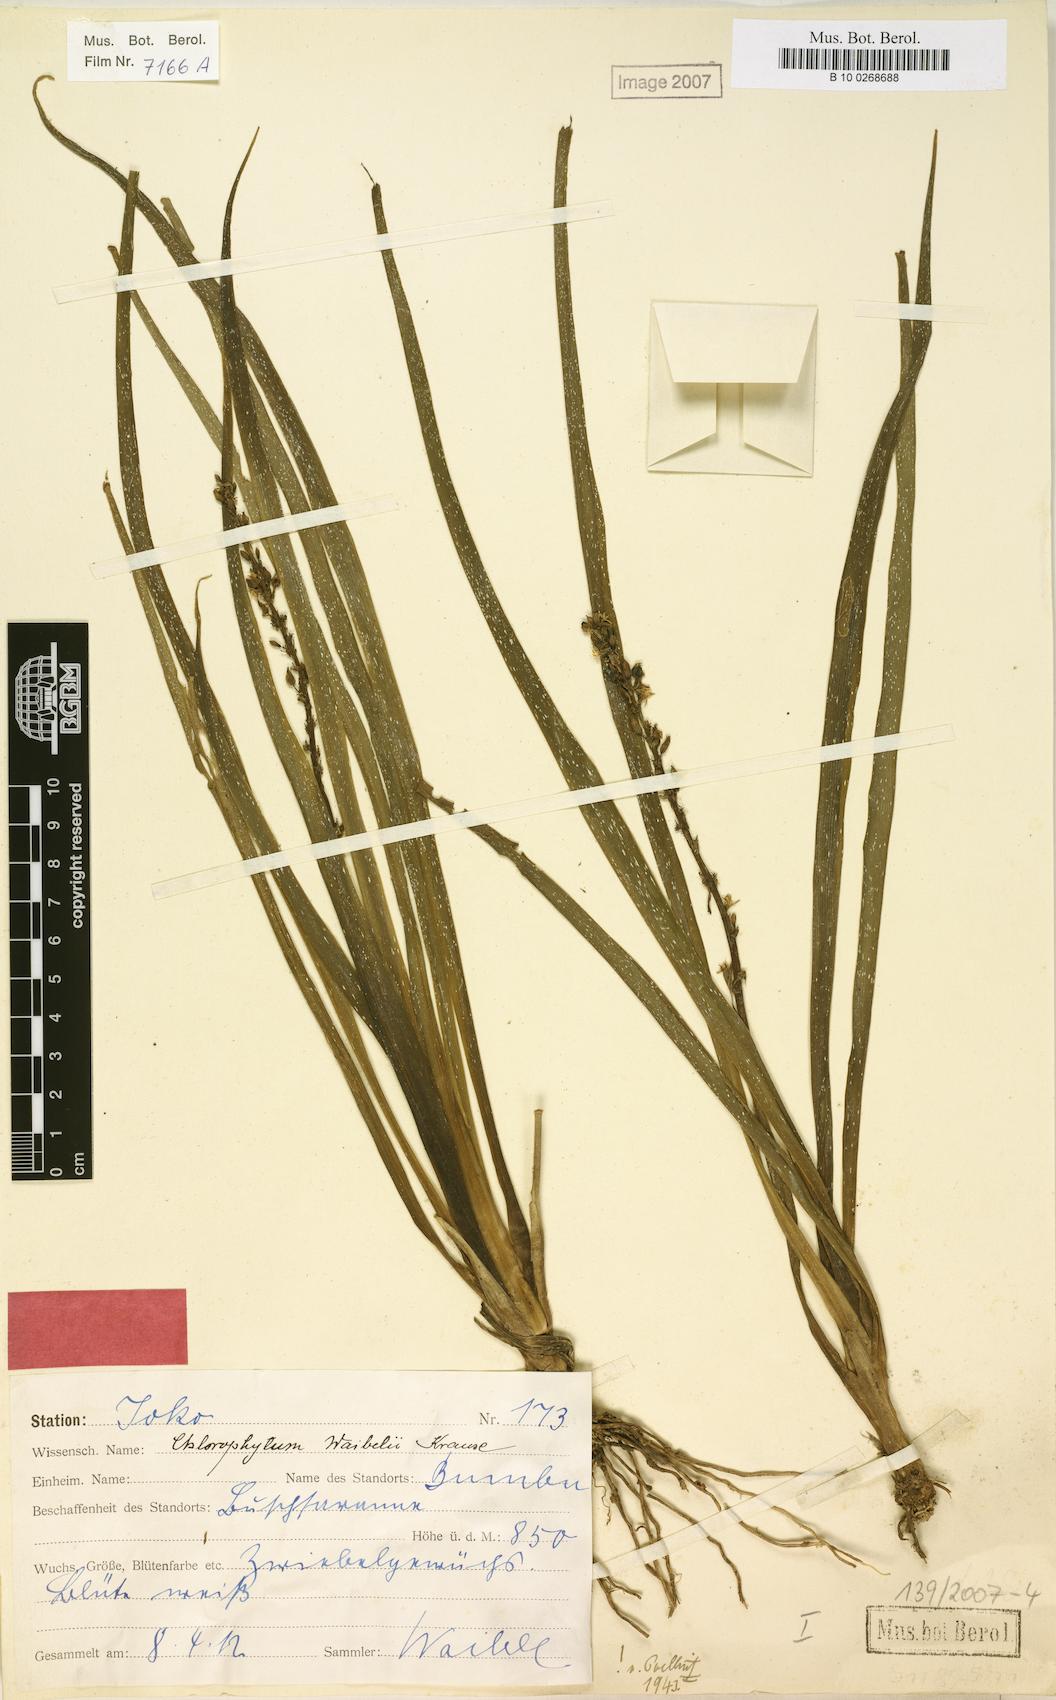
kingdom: Plantae
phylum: Tracheophyta
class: Liliopsida
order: Asparagales
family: Asparagaceae
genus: Chlorophytum
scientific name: Chlorophytum camporum
